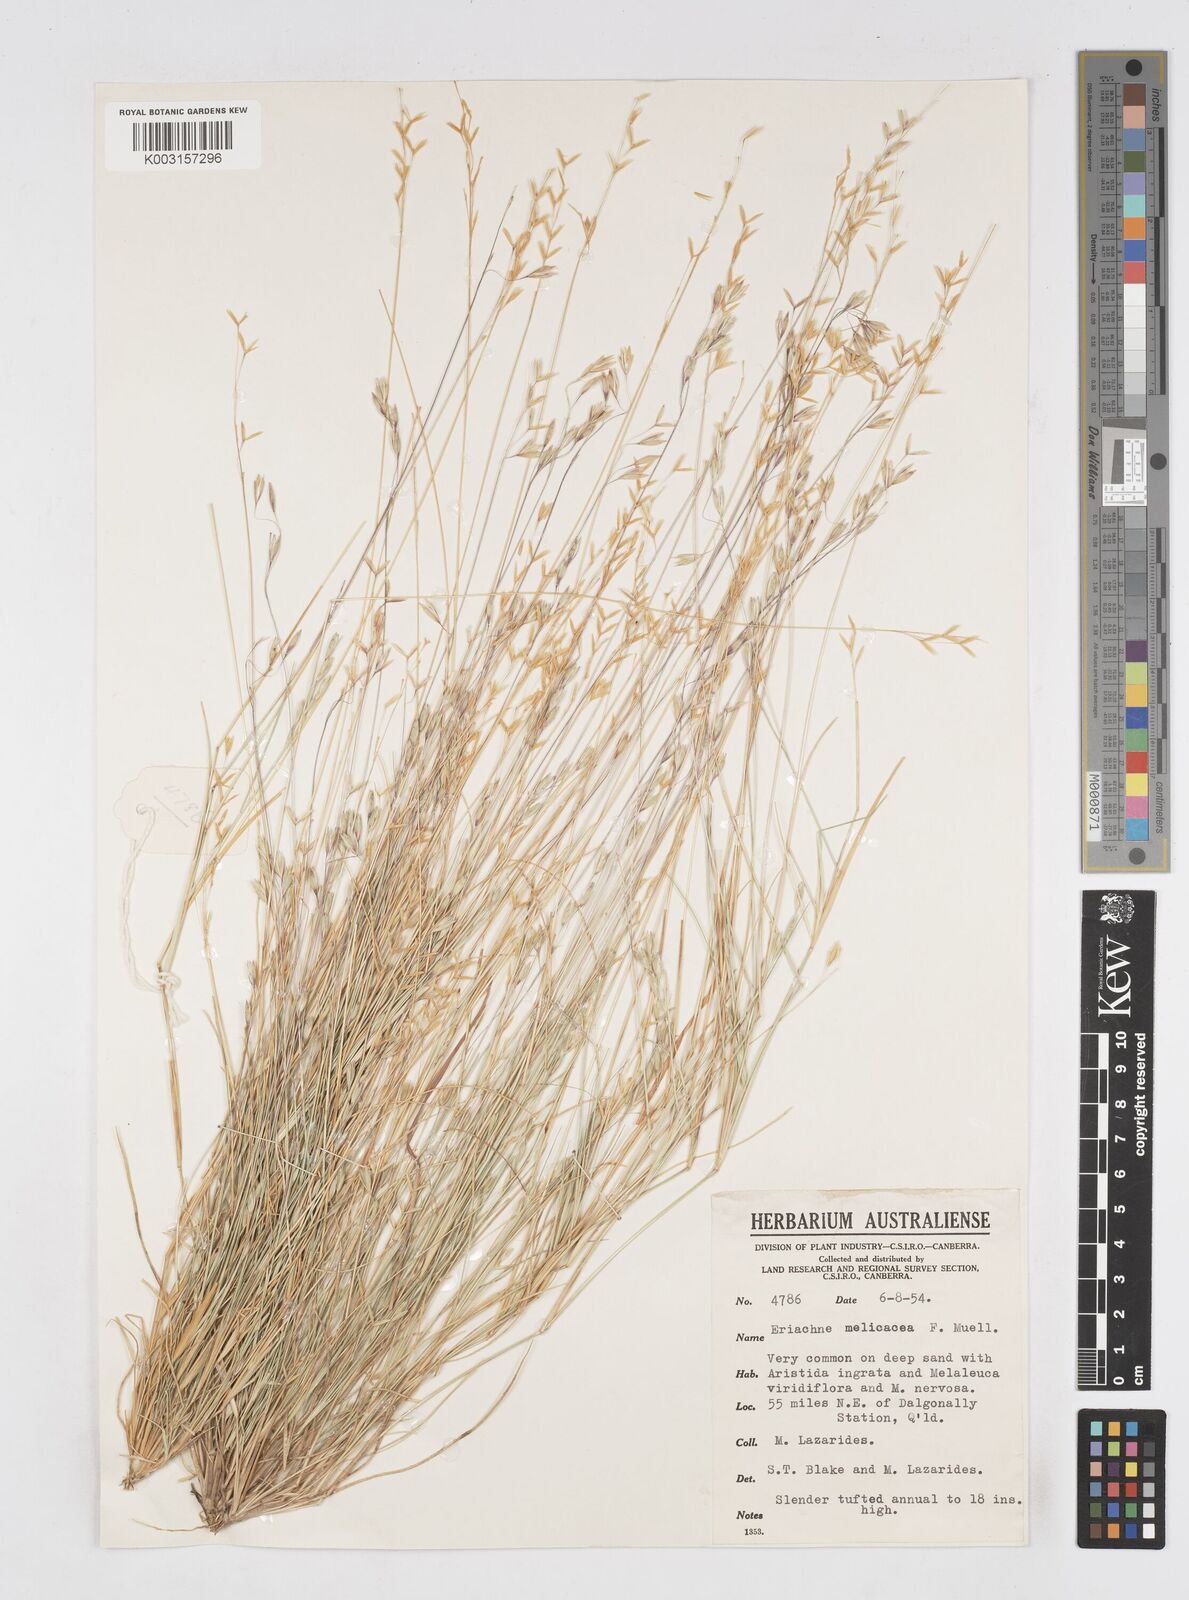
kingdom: Plantae
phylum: Tracheophyta
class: Liliopsida
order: Poales
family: Poaceae
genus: Eriachne
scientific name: Eriachne melicacea
